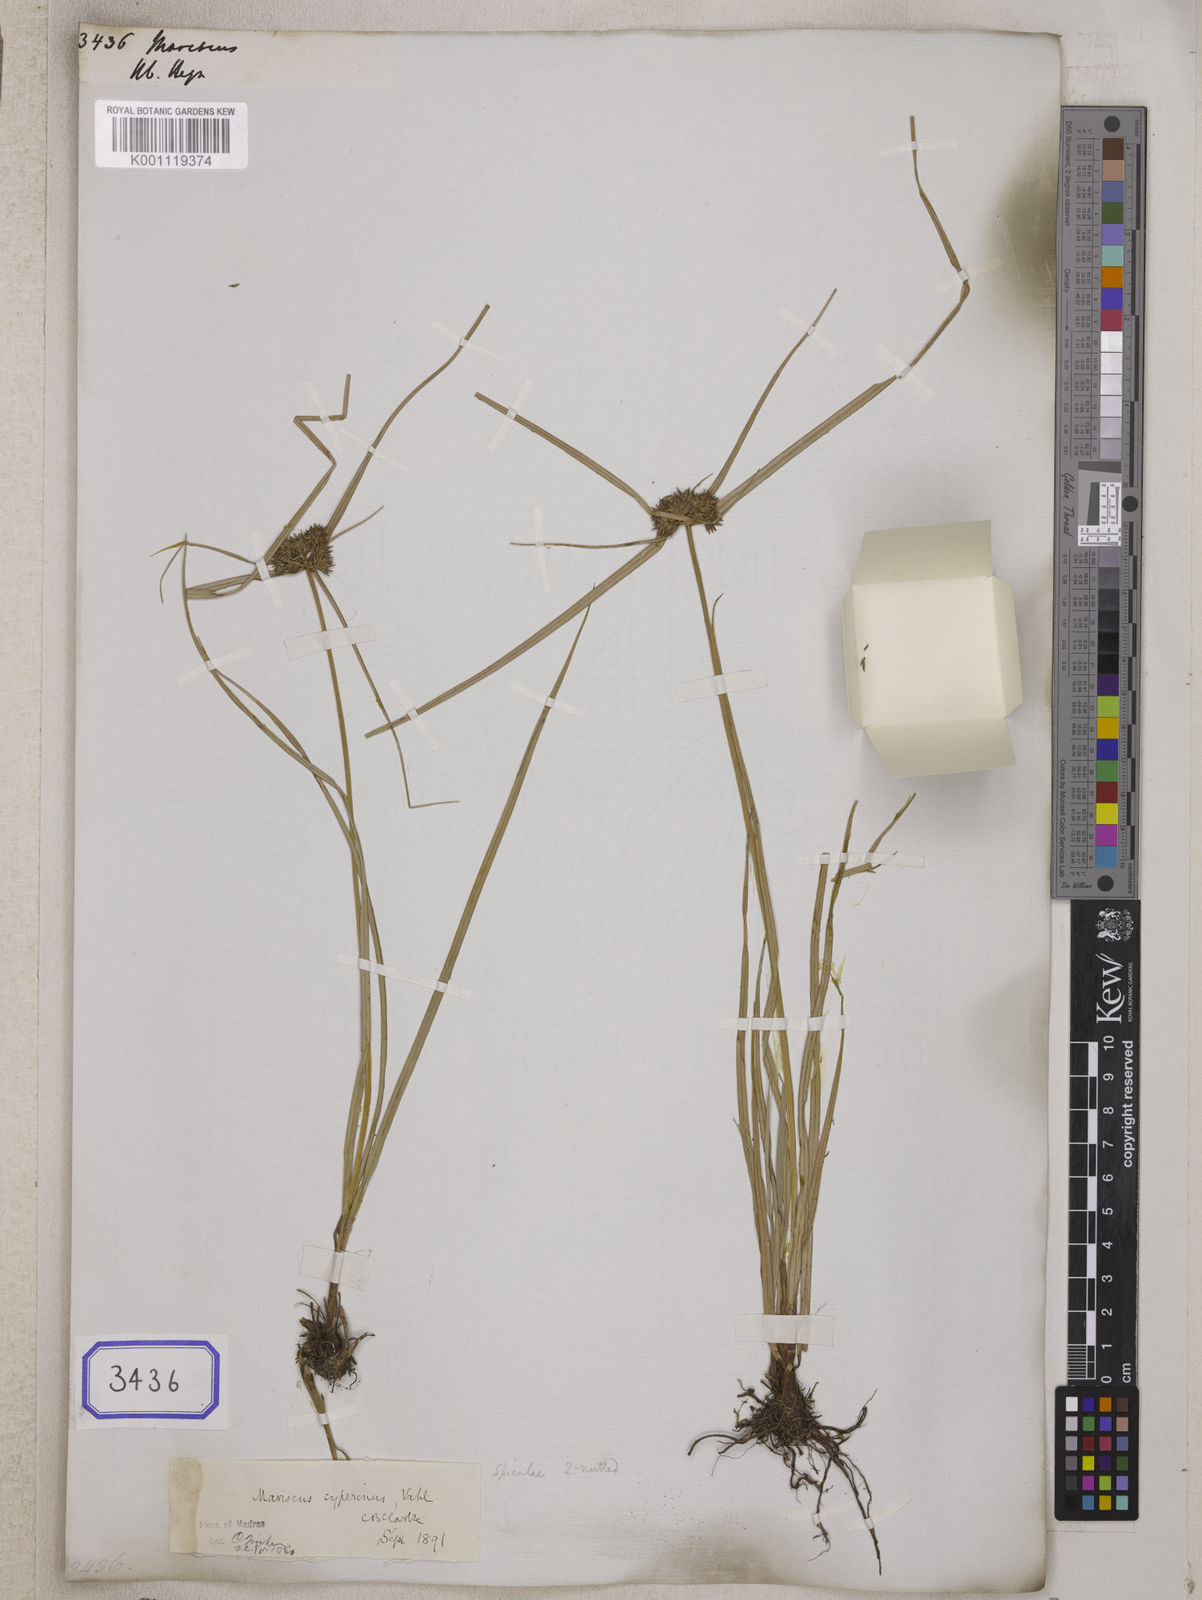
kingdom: Plantae
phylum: Tracheophyta
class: Liliopsida
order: Poales
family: Cyperaceae
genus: Mariscus
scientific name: Mariscus
